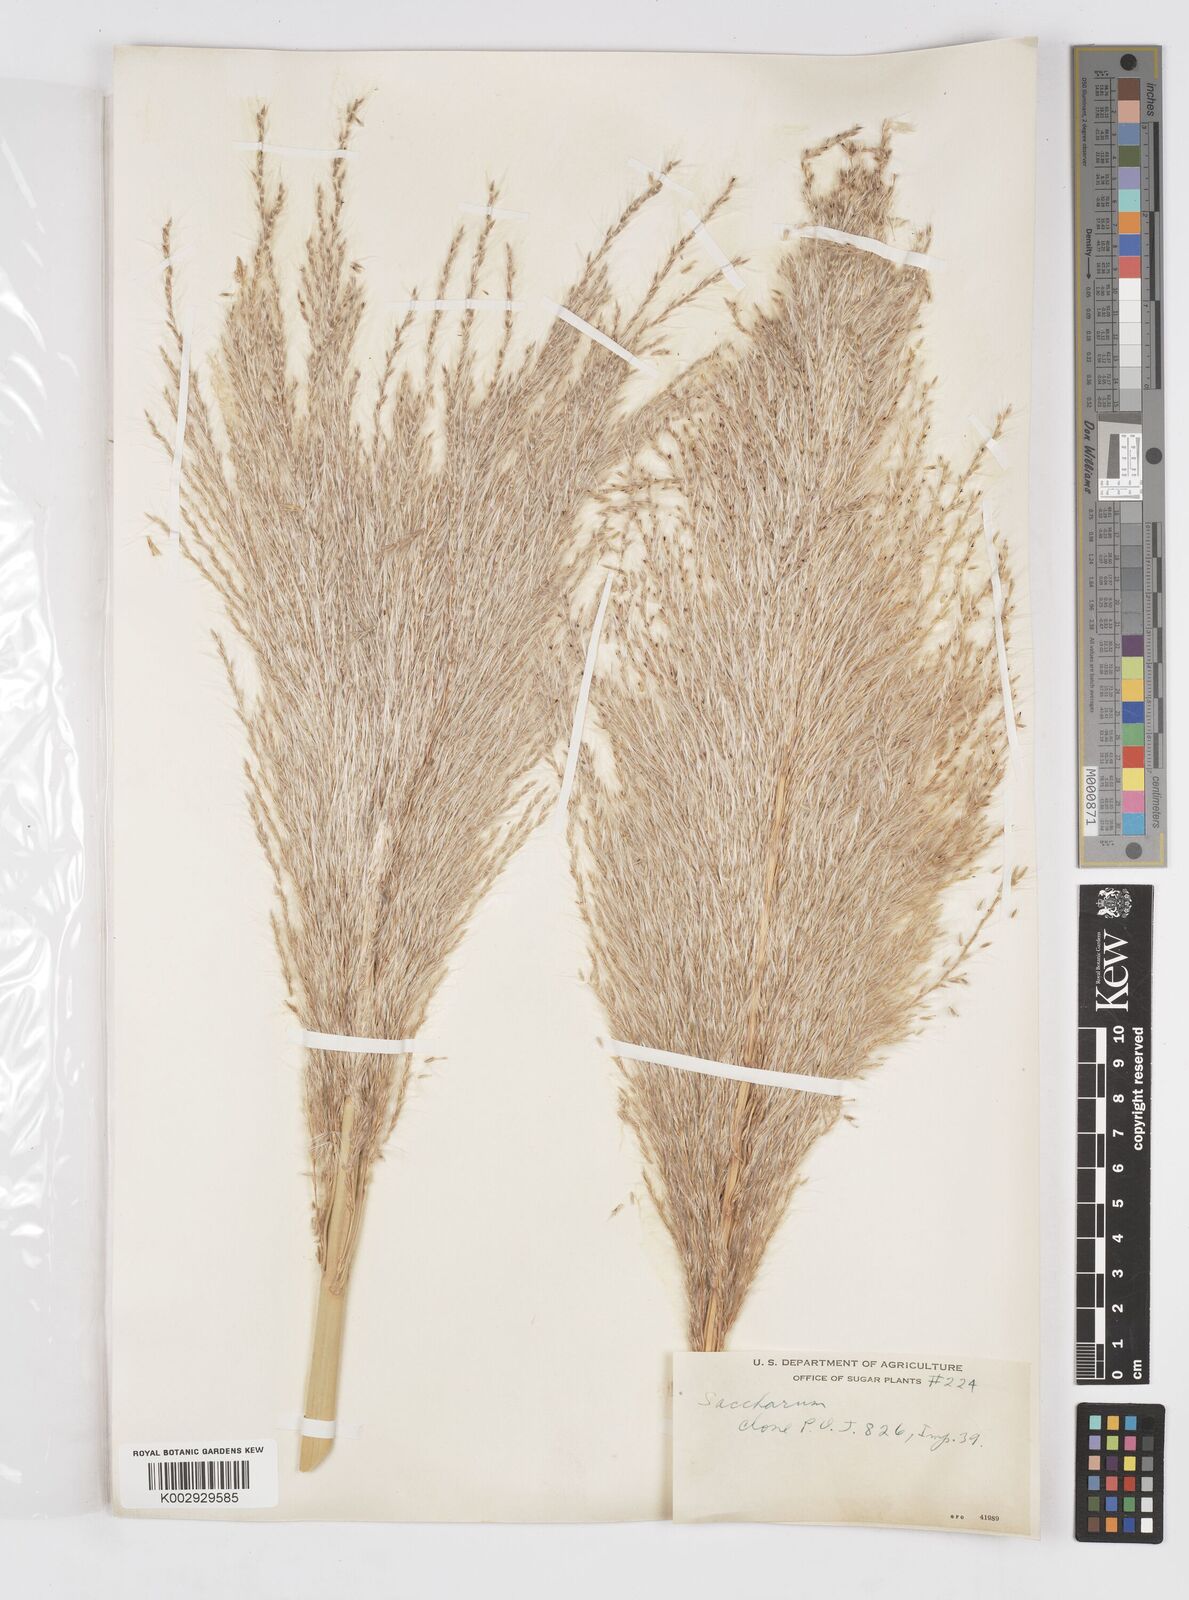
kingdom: Plantae
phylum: Tracheophyta
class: Liliopsida
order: Poales
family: Poaceae
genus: Saccharum
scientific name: Saccharum officinarum
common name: Sugarcane
